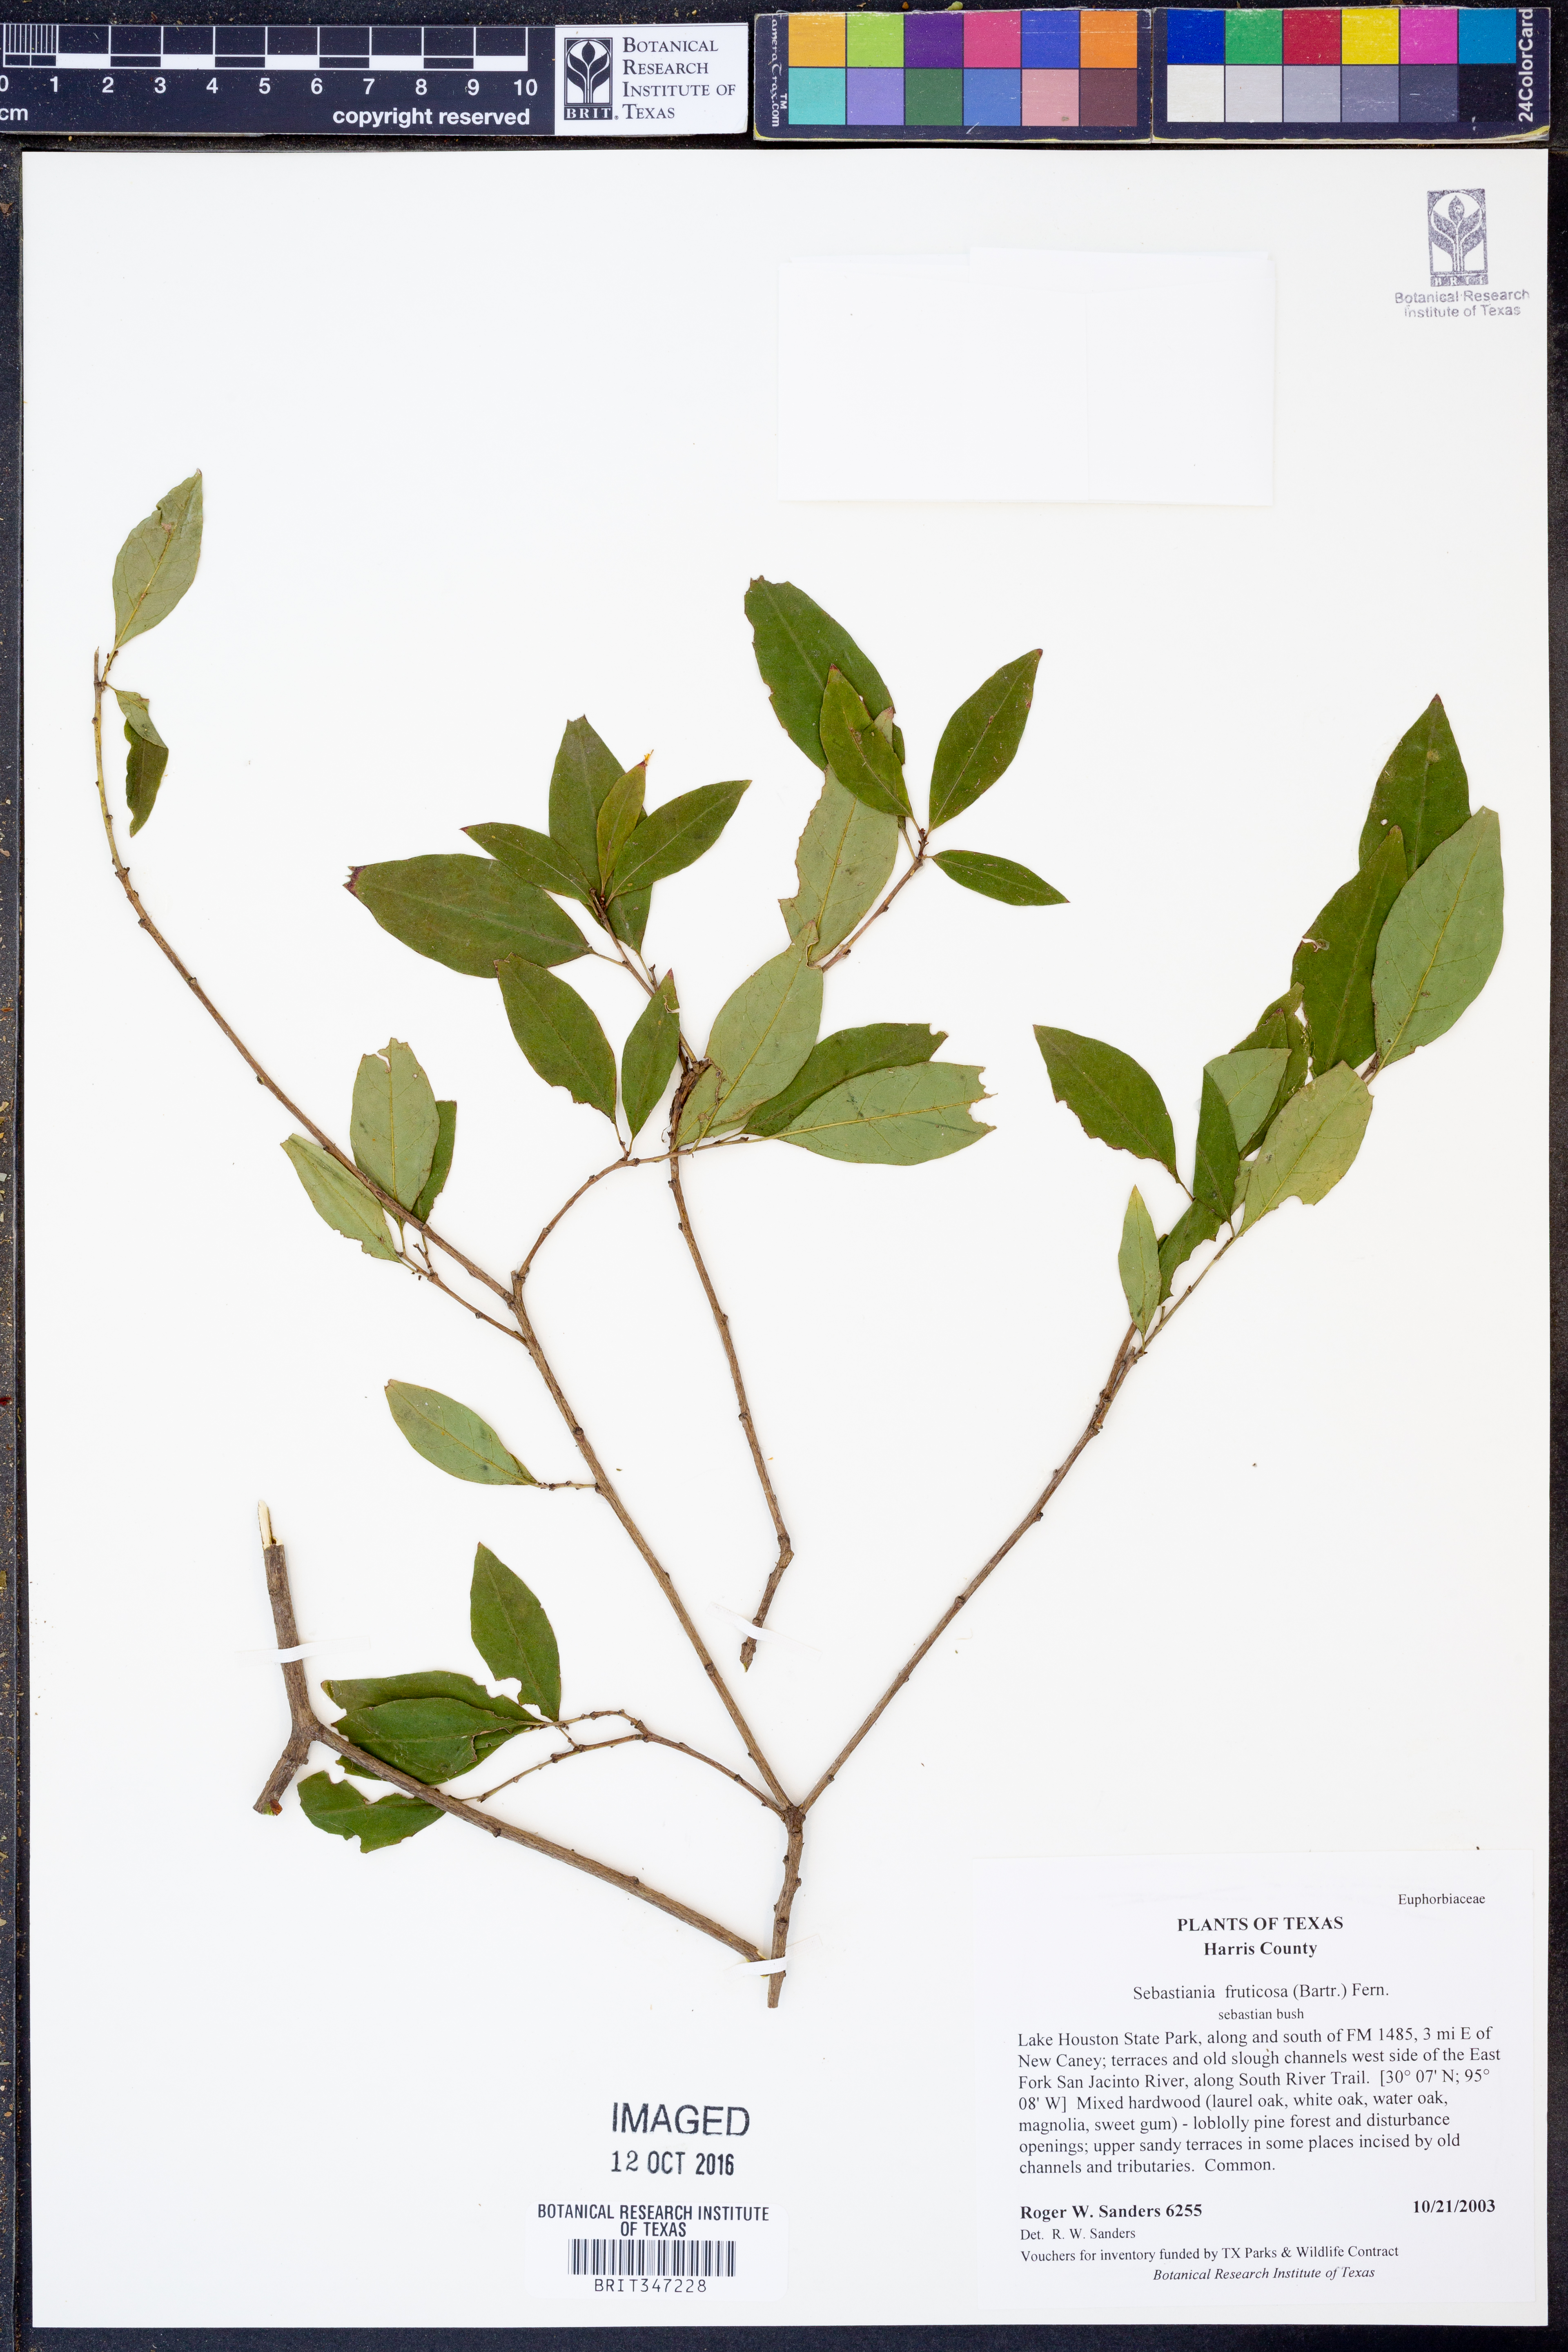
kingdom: Plantae
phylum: Tracheophyta
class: Magnoliopsida
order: Malpighiales
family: Euphorbiaceae
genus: Ditrysinia
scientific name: Ditrysinia fruticosa
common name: Gulf sebastian-bush
